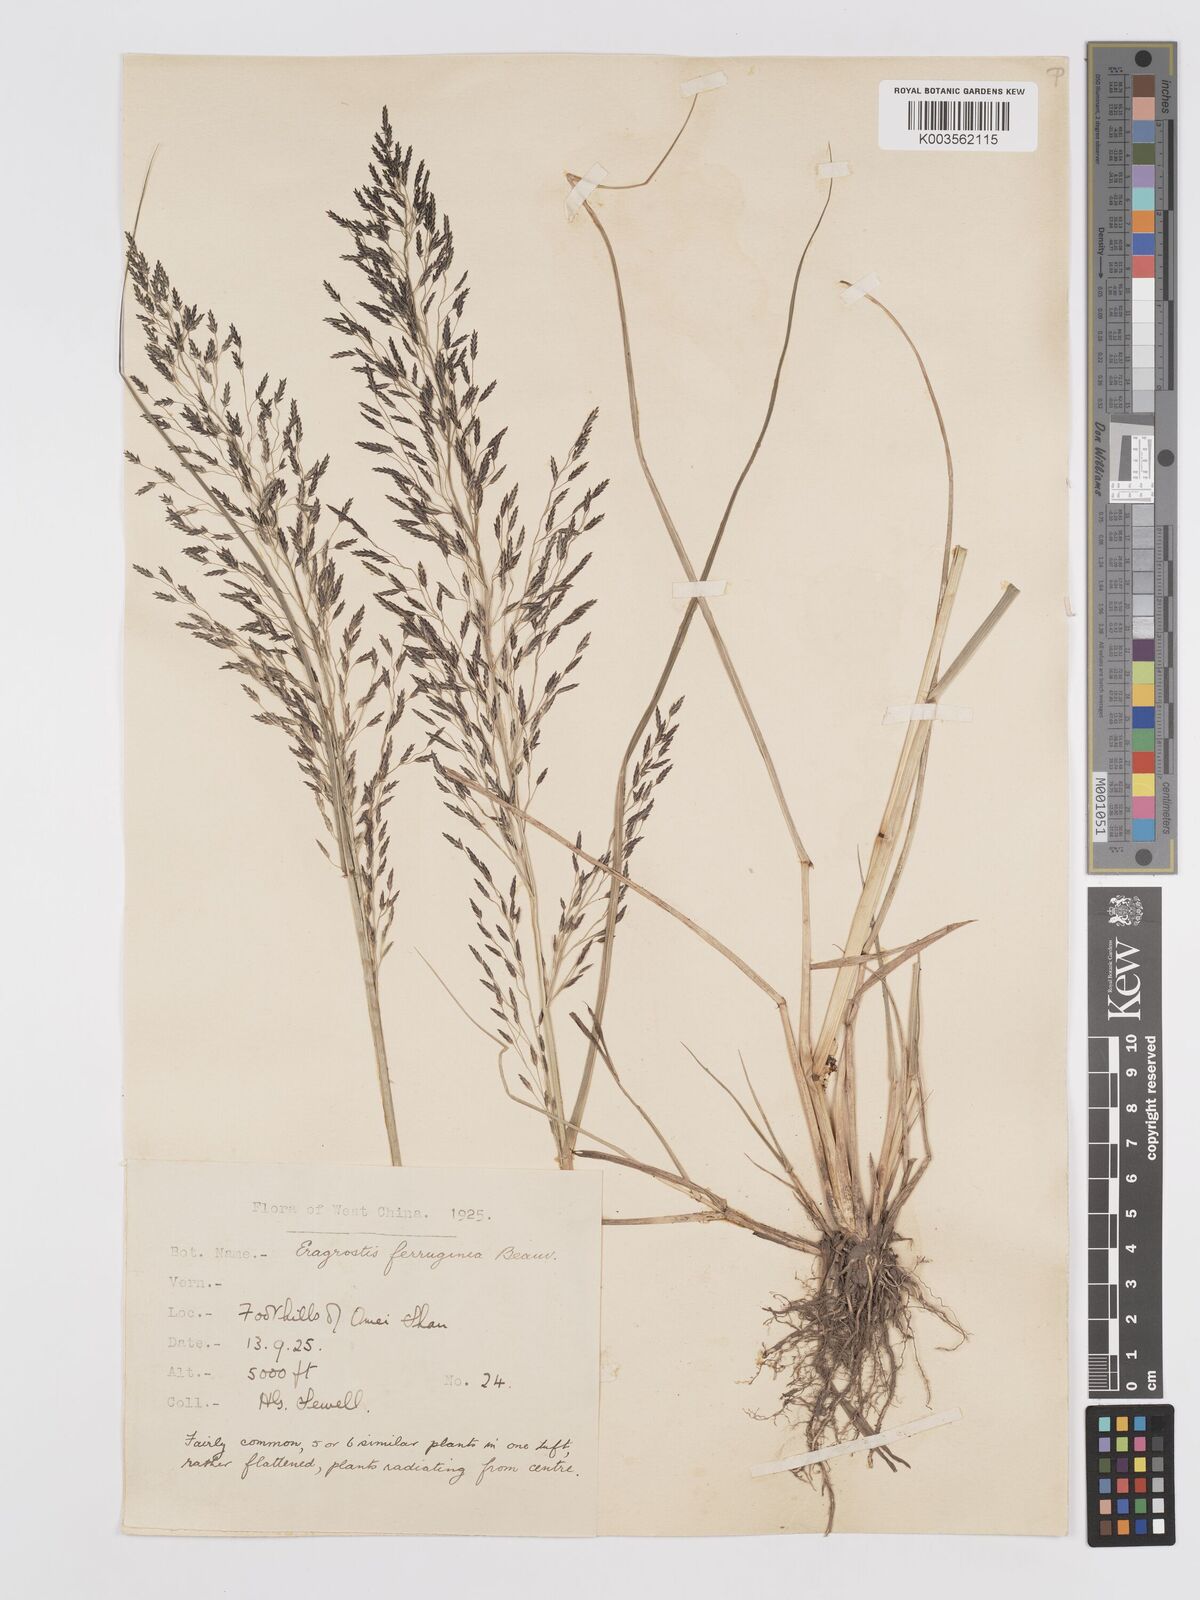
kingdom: Plantae
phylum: Tracheophyta
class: Liliopsida
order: Poales
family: Poaceae
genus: Eragrostis
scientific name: Eragrostis ferruginea
